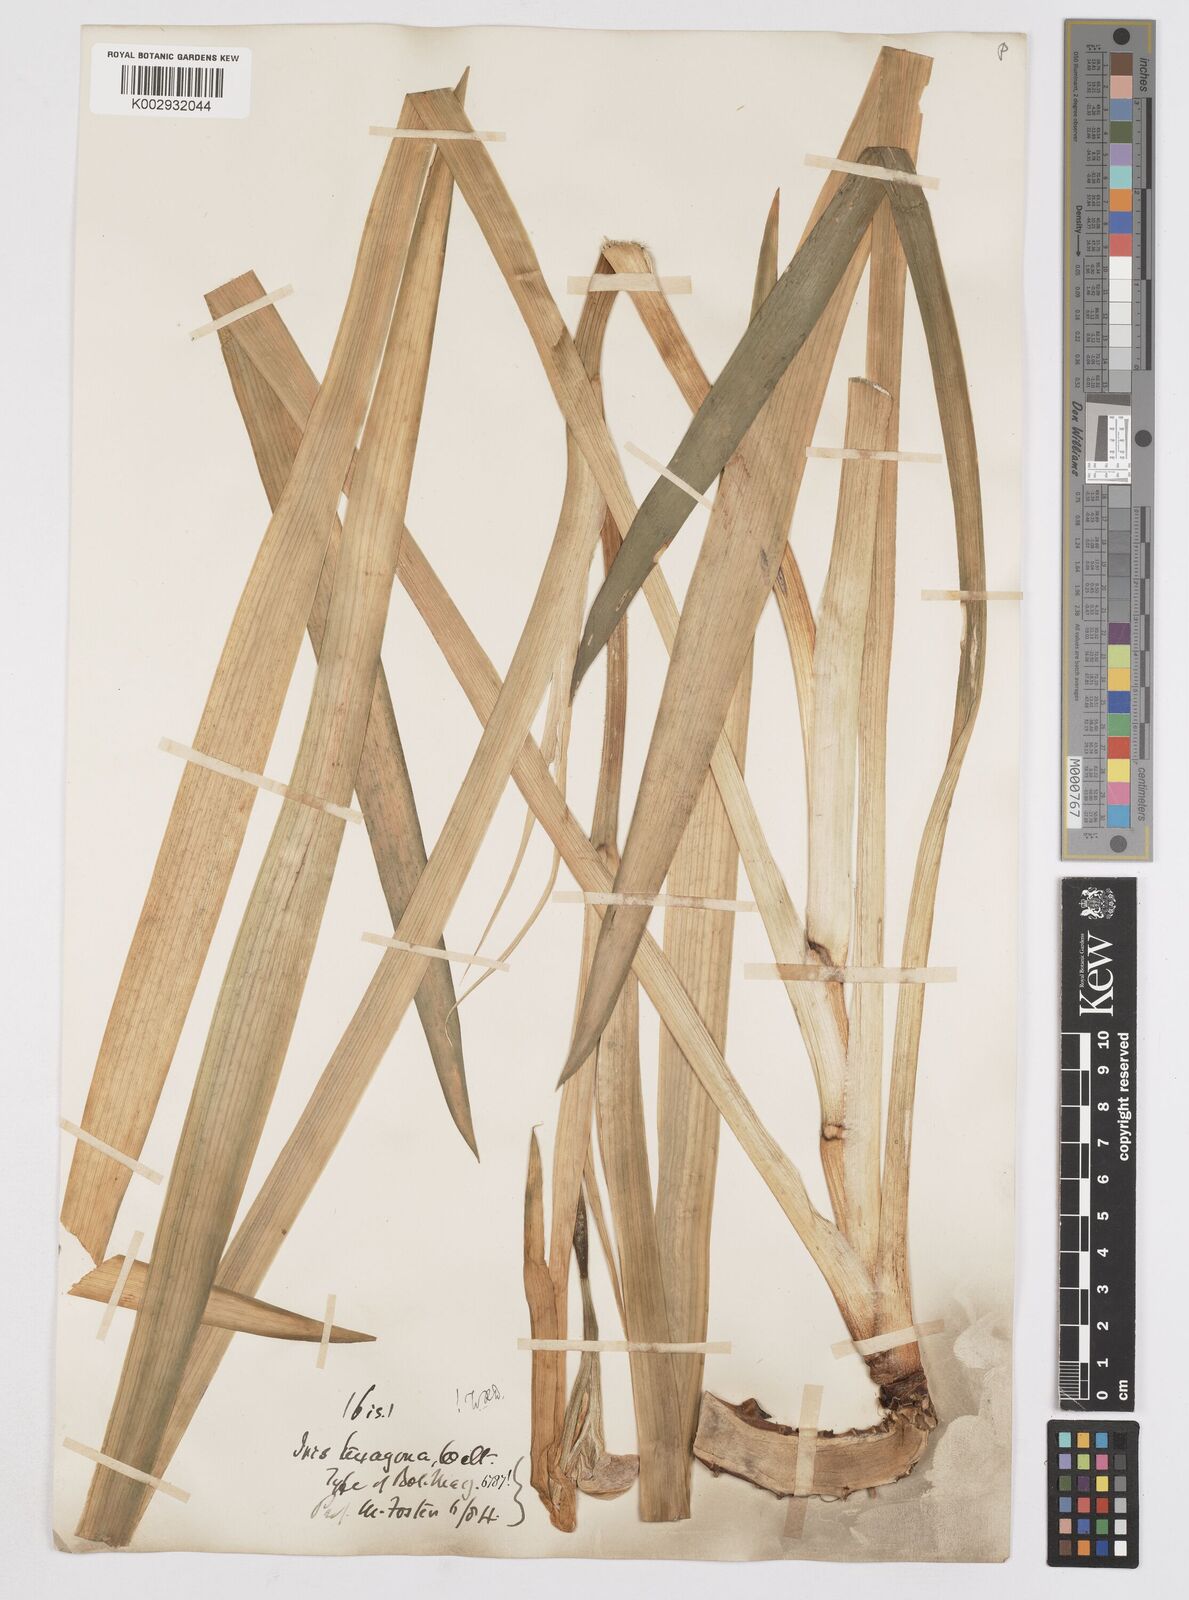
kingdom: Plantae
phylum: Tracheophyta
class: Liliopsida
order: Asparagales
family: Iridaceae
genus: Iris
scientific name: Iris hexagona
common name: Carolina iris
